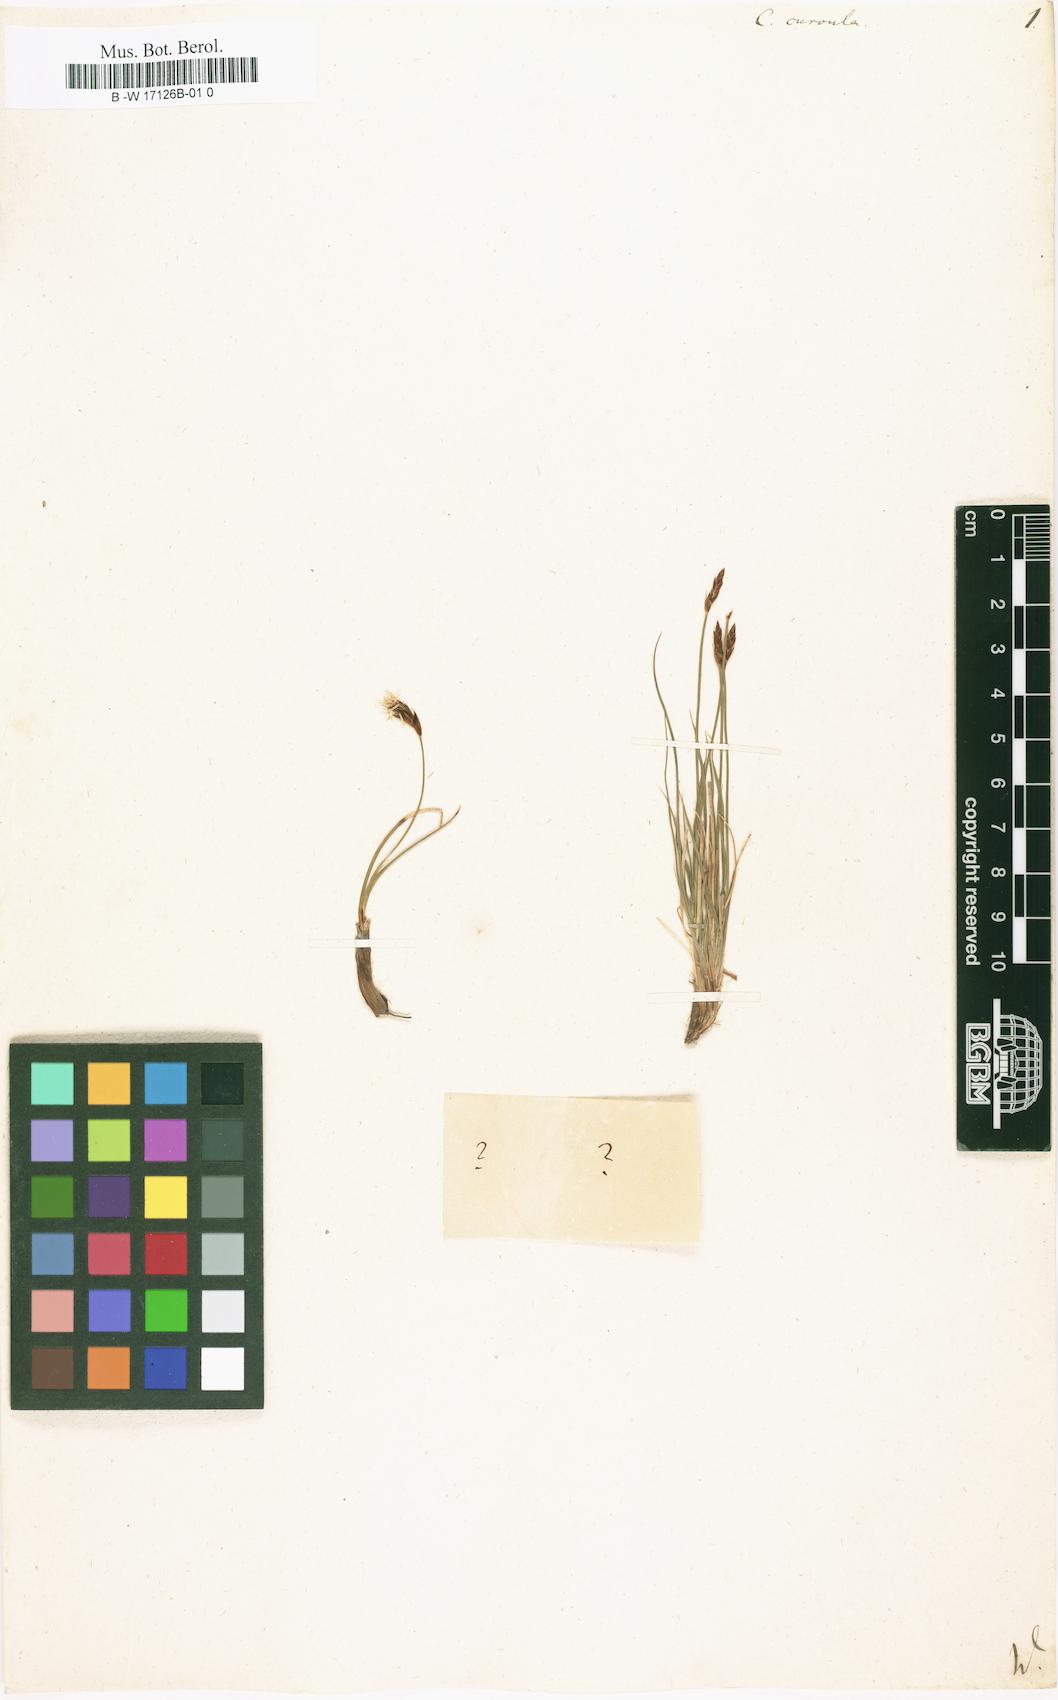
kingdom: Plantae
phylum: Tracheophyta
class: Liliopsida
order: Poales
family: Cyperaceae
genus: Carex
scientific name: Carex curvula
